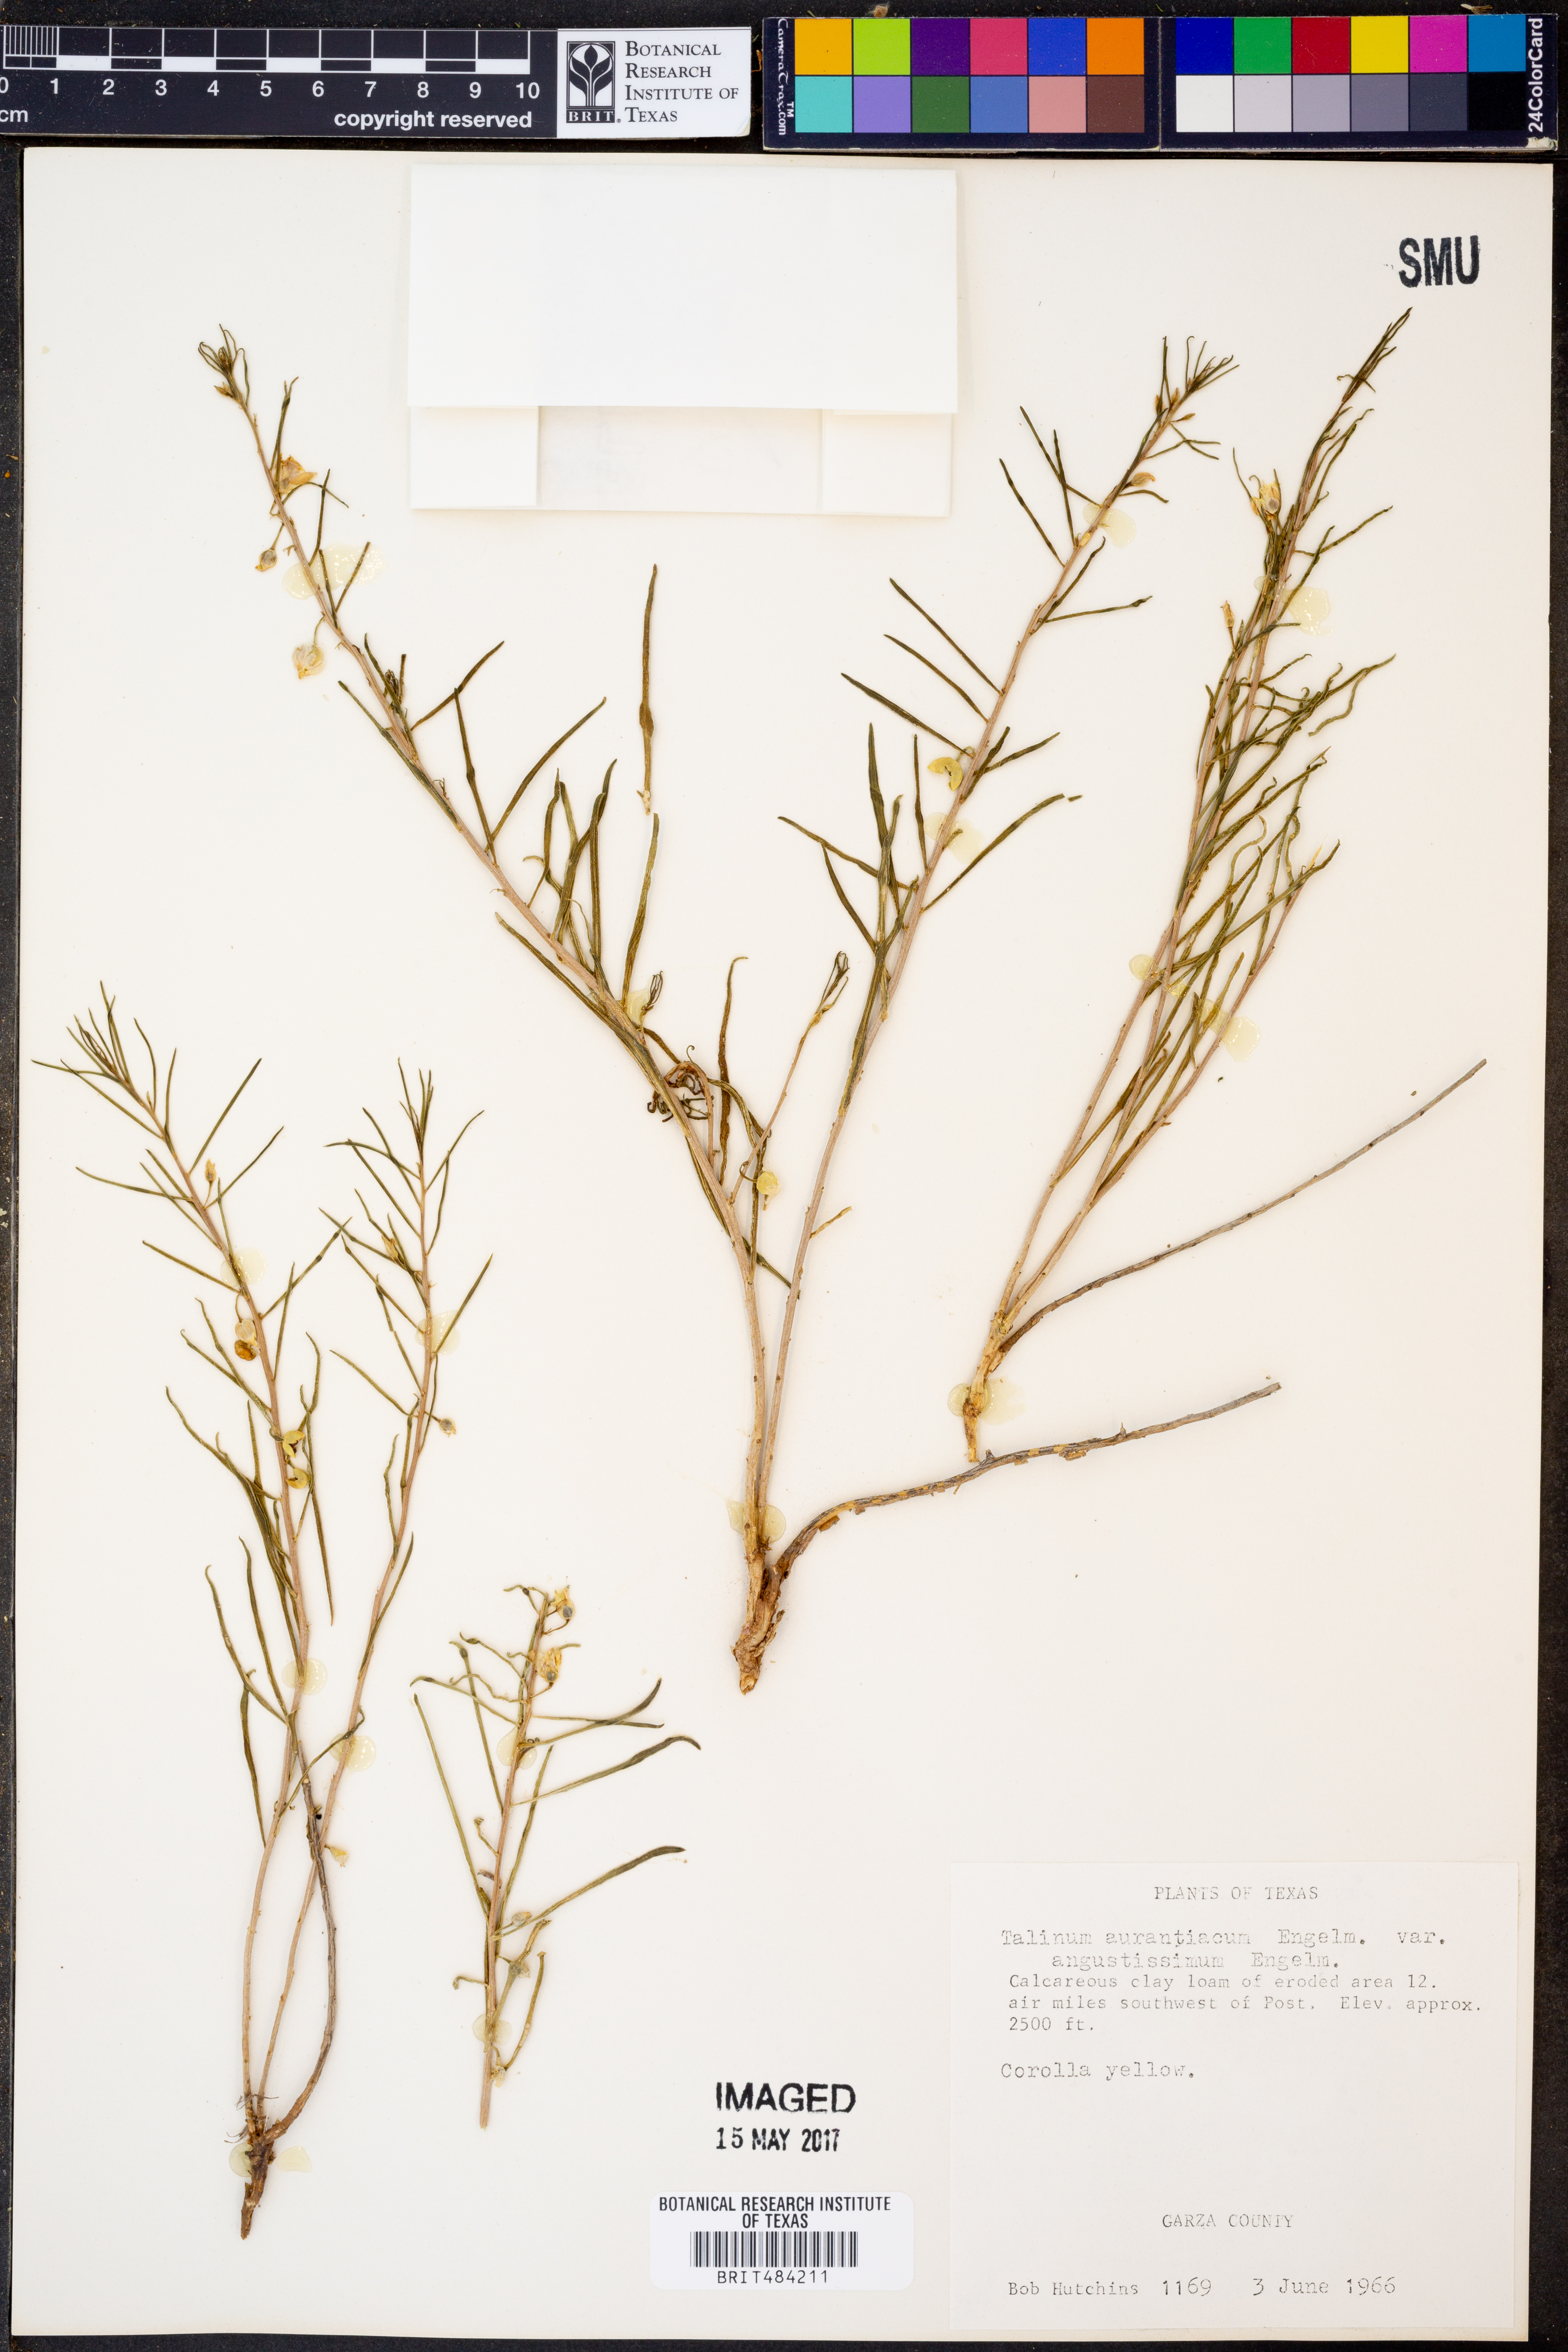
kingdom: Plantae
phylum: Tracheophyta
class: Magnoliopsida
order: Caryophyllales
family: Montiaceae
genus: Phemeranthus
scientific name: Phemeranthus aurantiacus
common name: Orange fameflower
